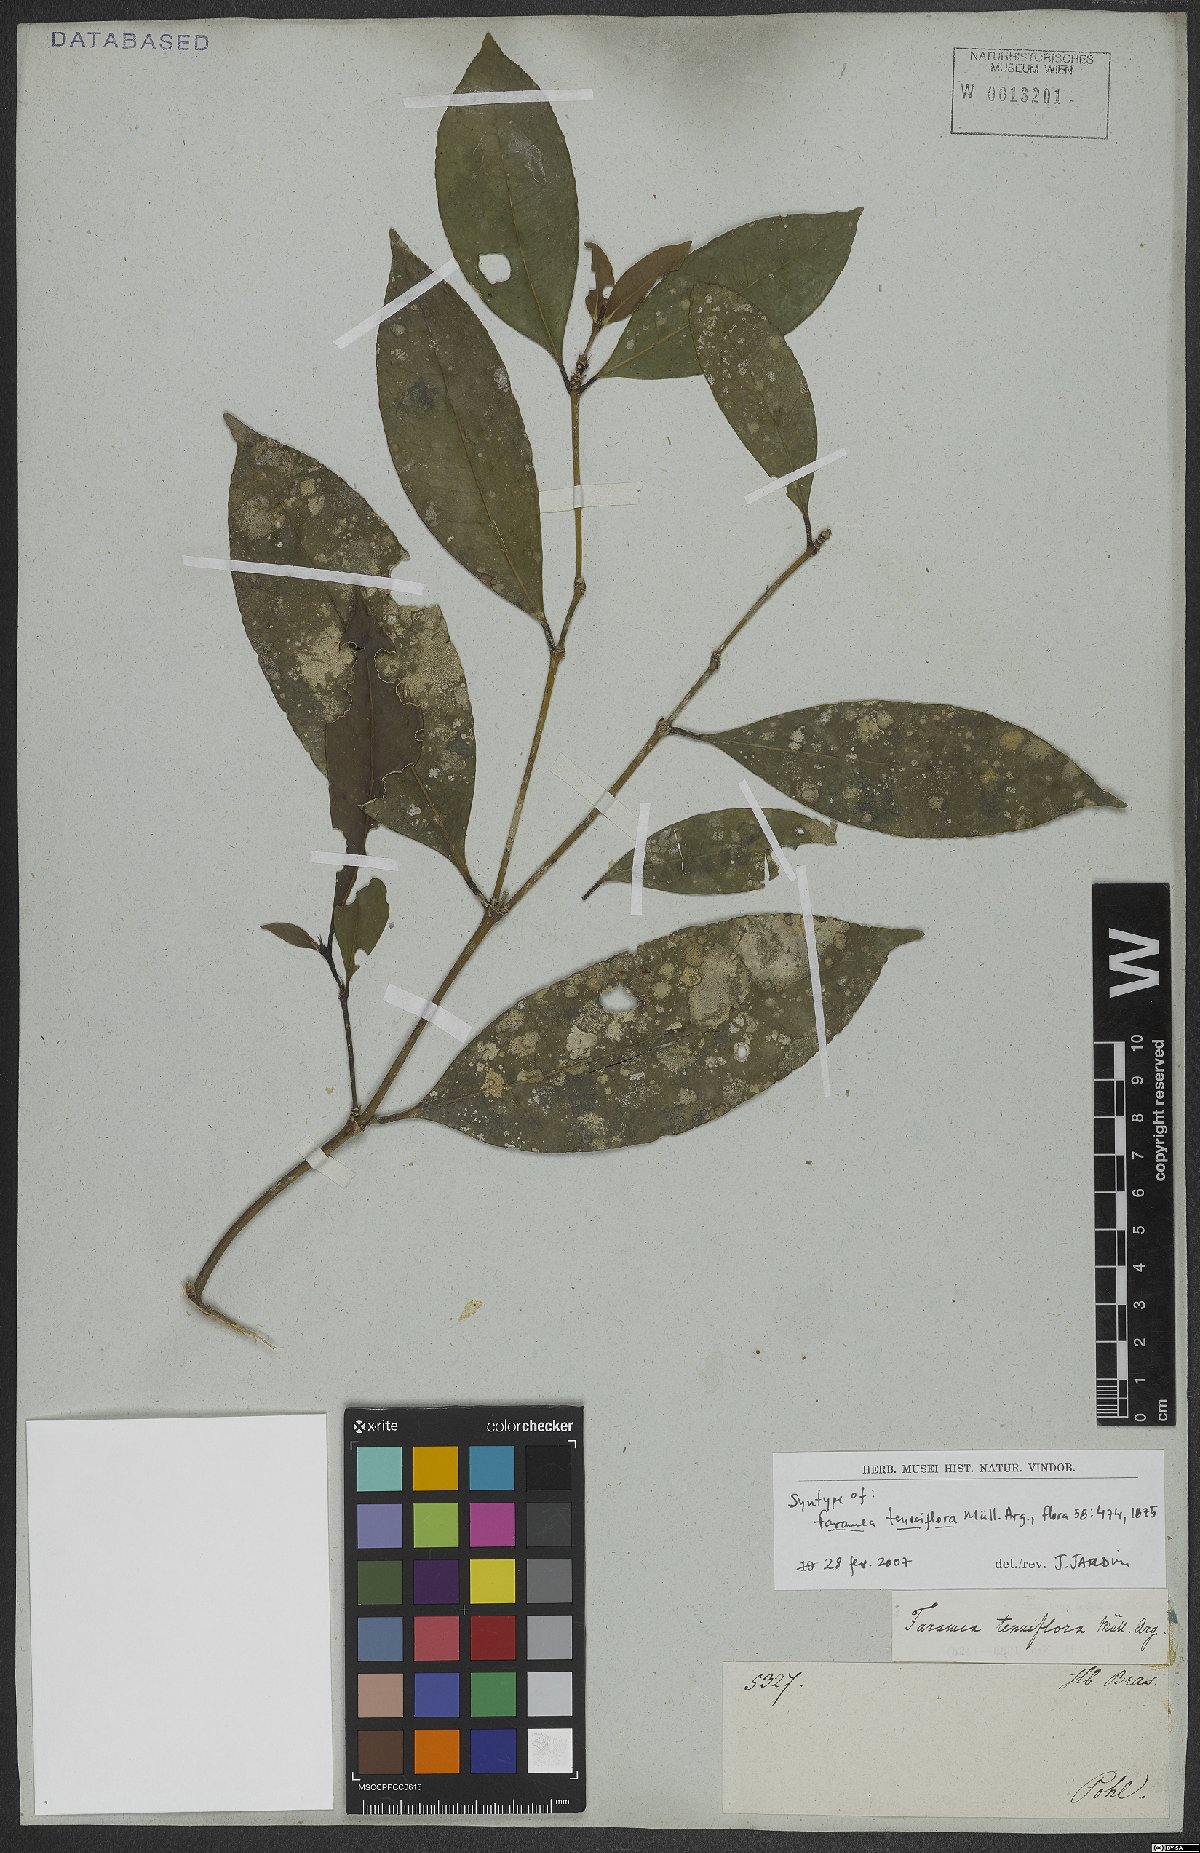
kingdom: Plantae
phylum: Tracheophyta
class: Magnoliopsida
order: Gentianales
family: Rubiaceae
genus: Faramea
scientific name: Faramea tenuiflora
